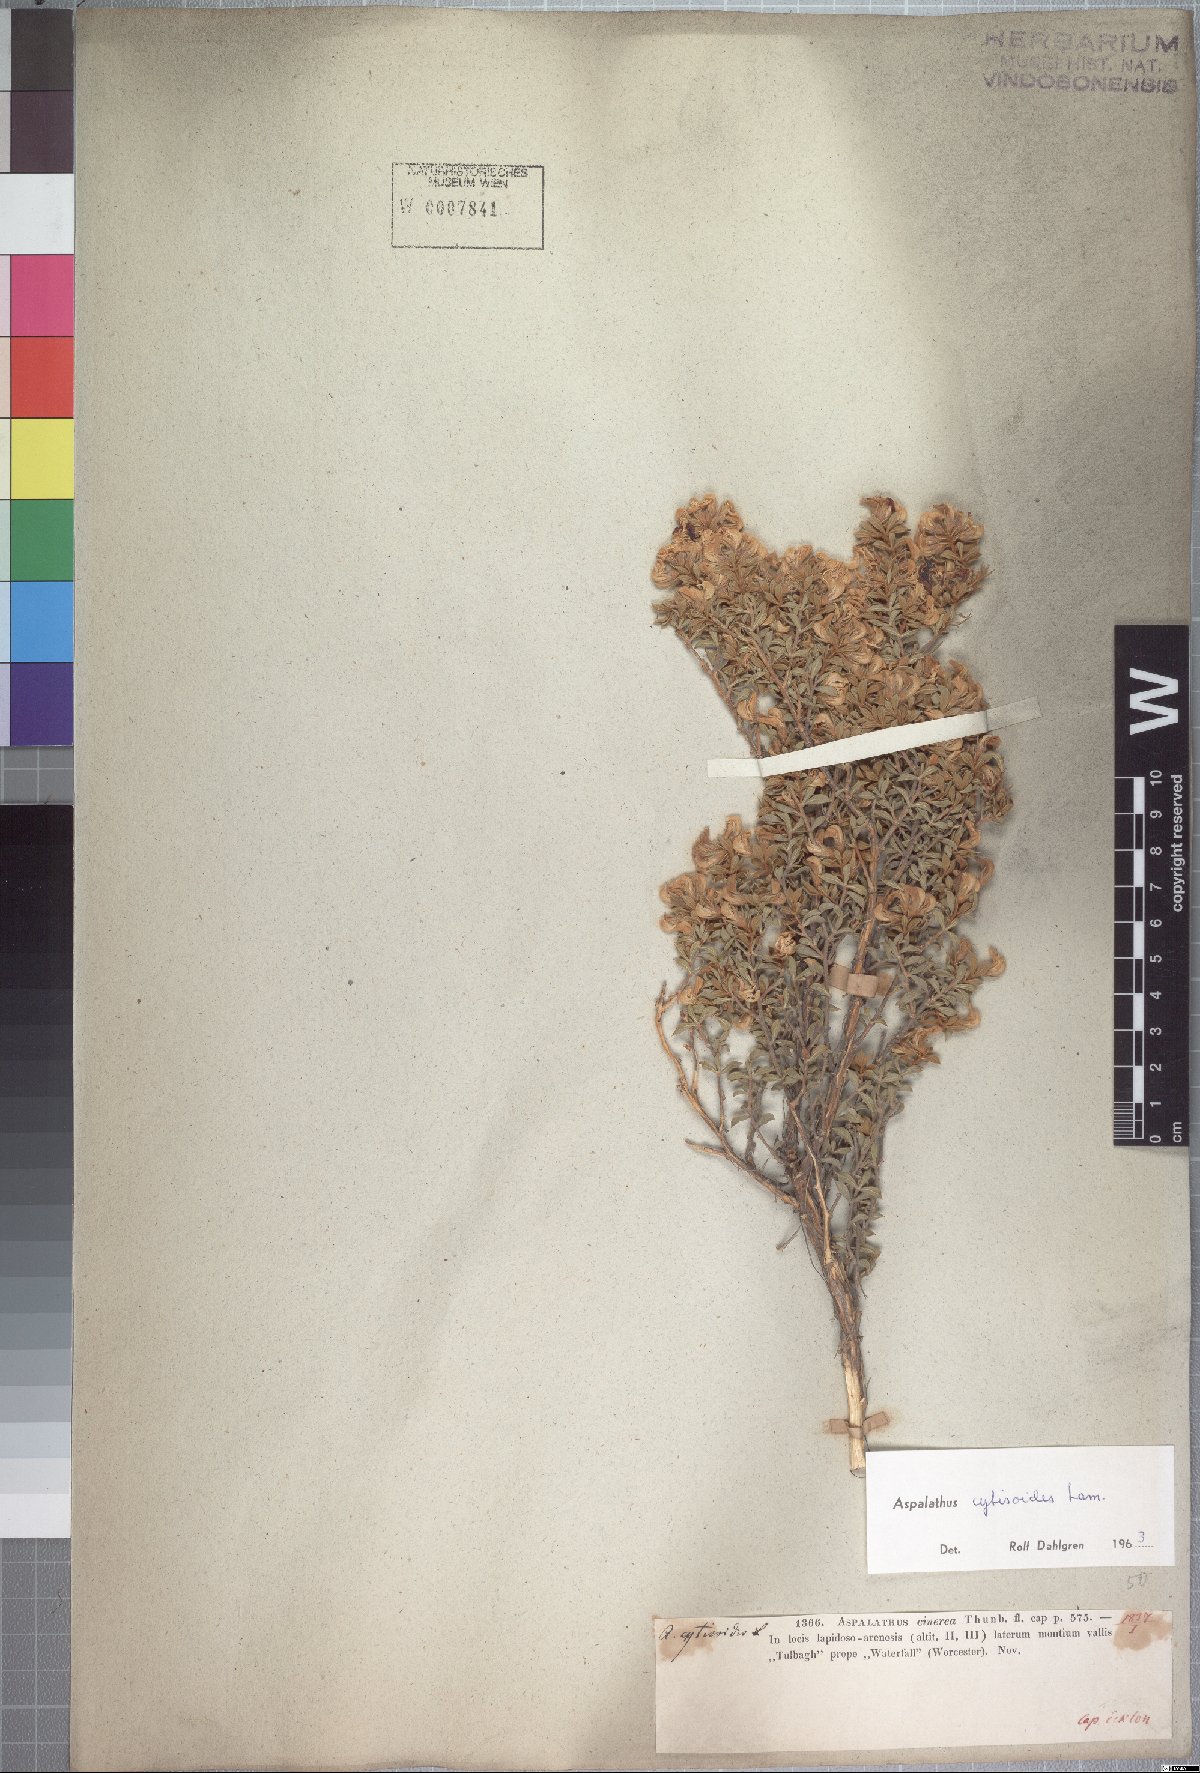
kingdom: Plantae
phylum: Tracheophyta
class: Magnoliopsida
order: Fabales
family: Fabaceae
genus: Aspalathus
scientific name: Aspalathus cytisoides
